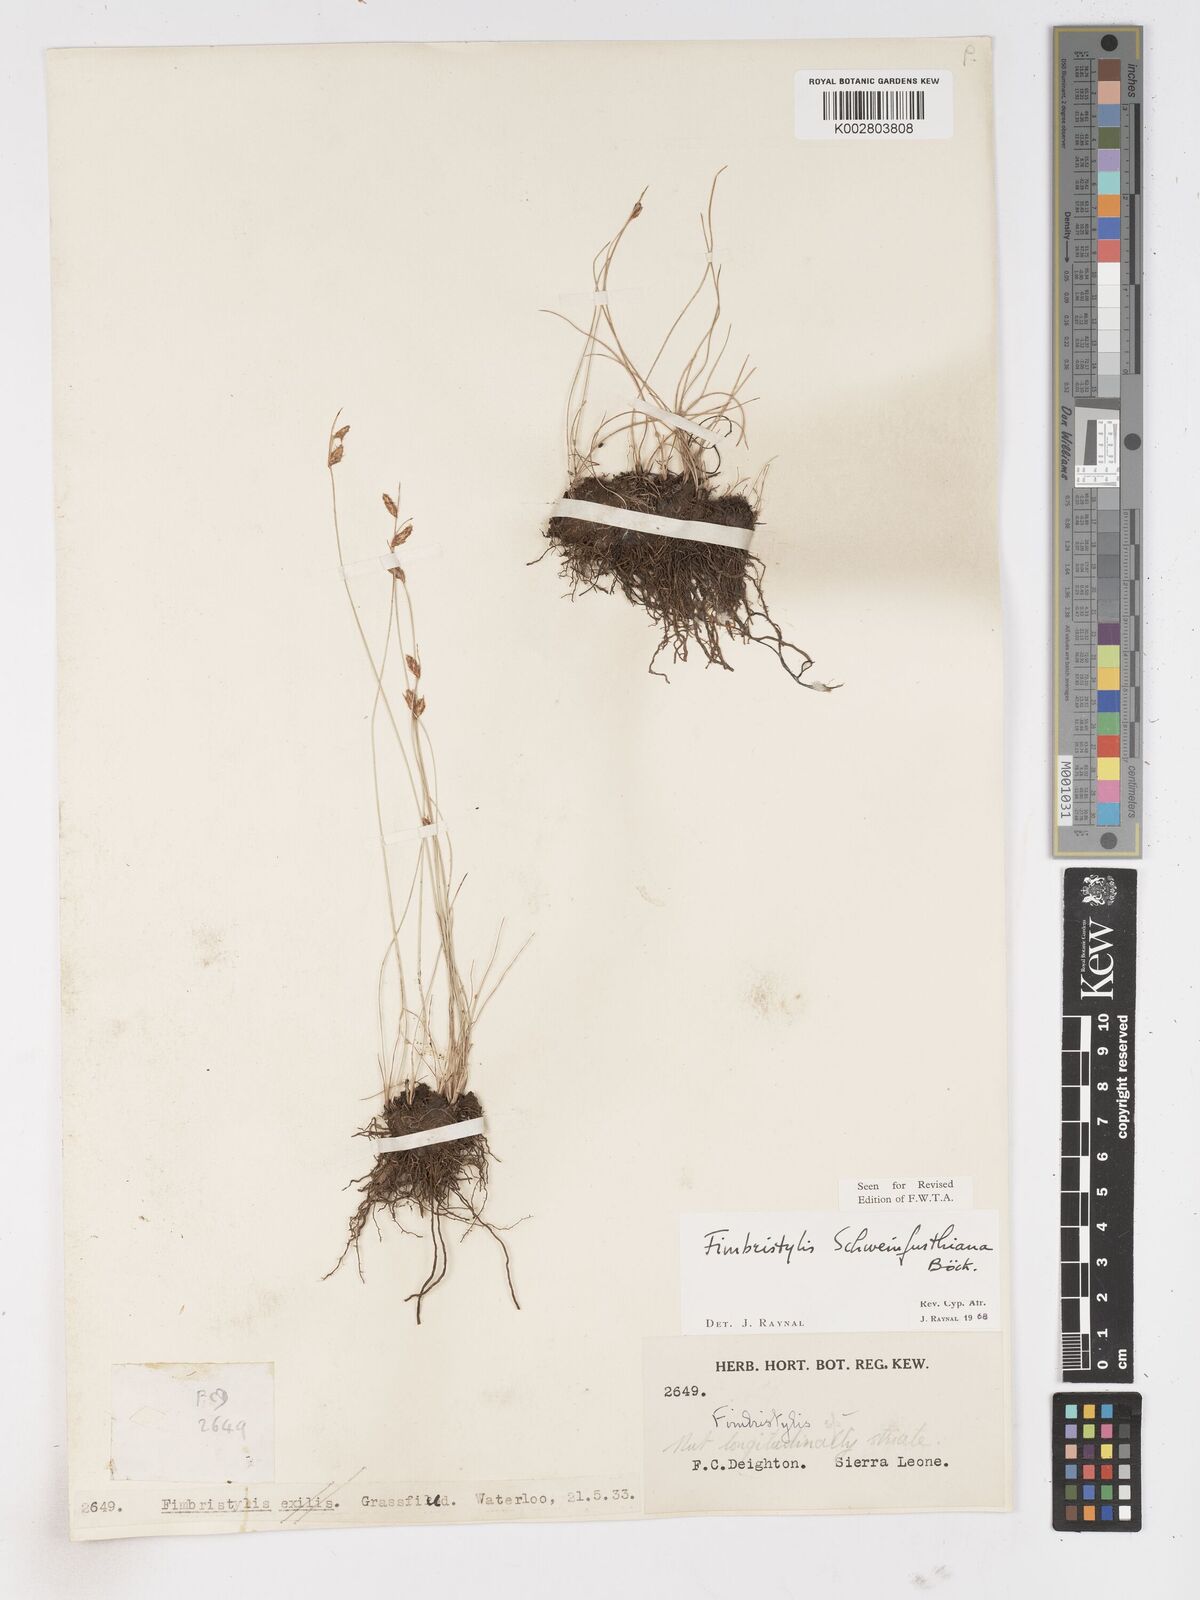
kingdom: Plantae
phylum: Tracheophyta
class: Liliopsida
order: Poales
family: Cyperaceae
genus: Fimbristylis
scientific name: Fimbristylis schweinfurthiana
